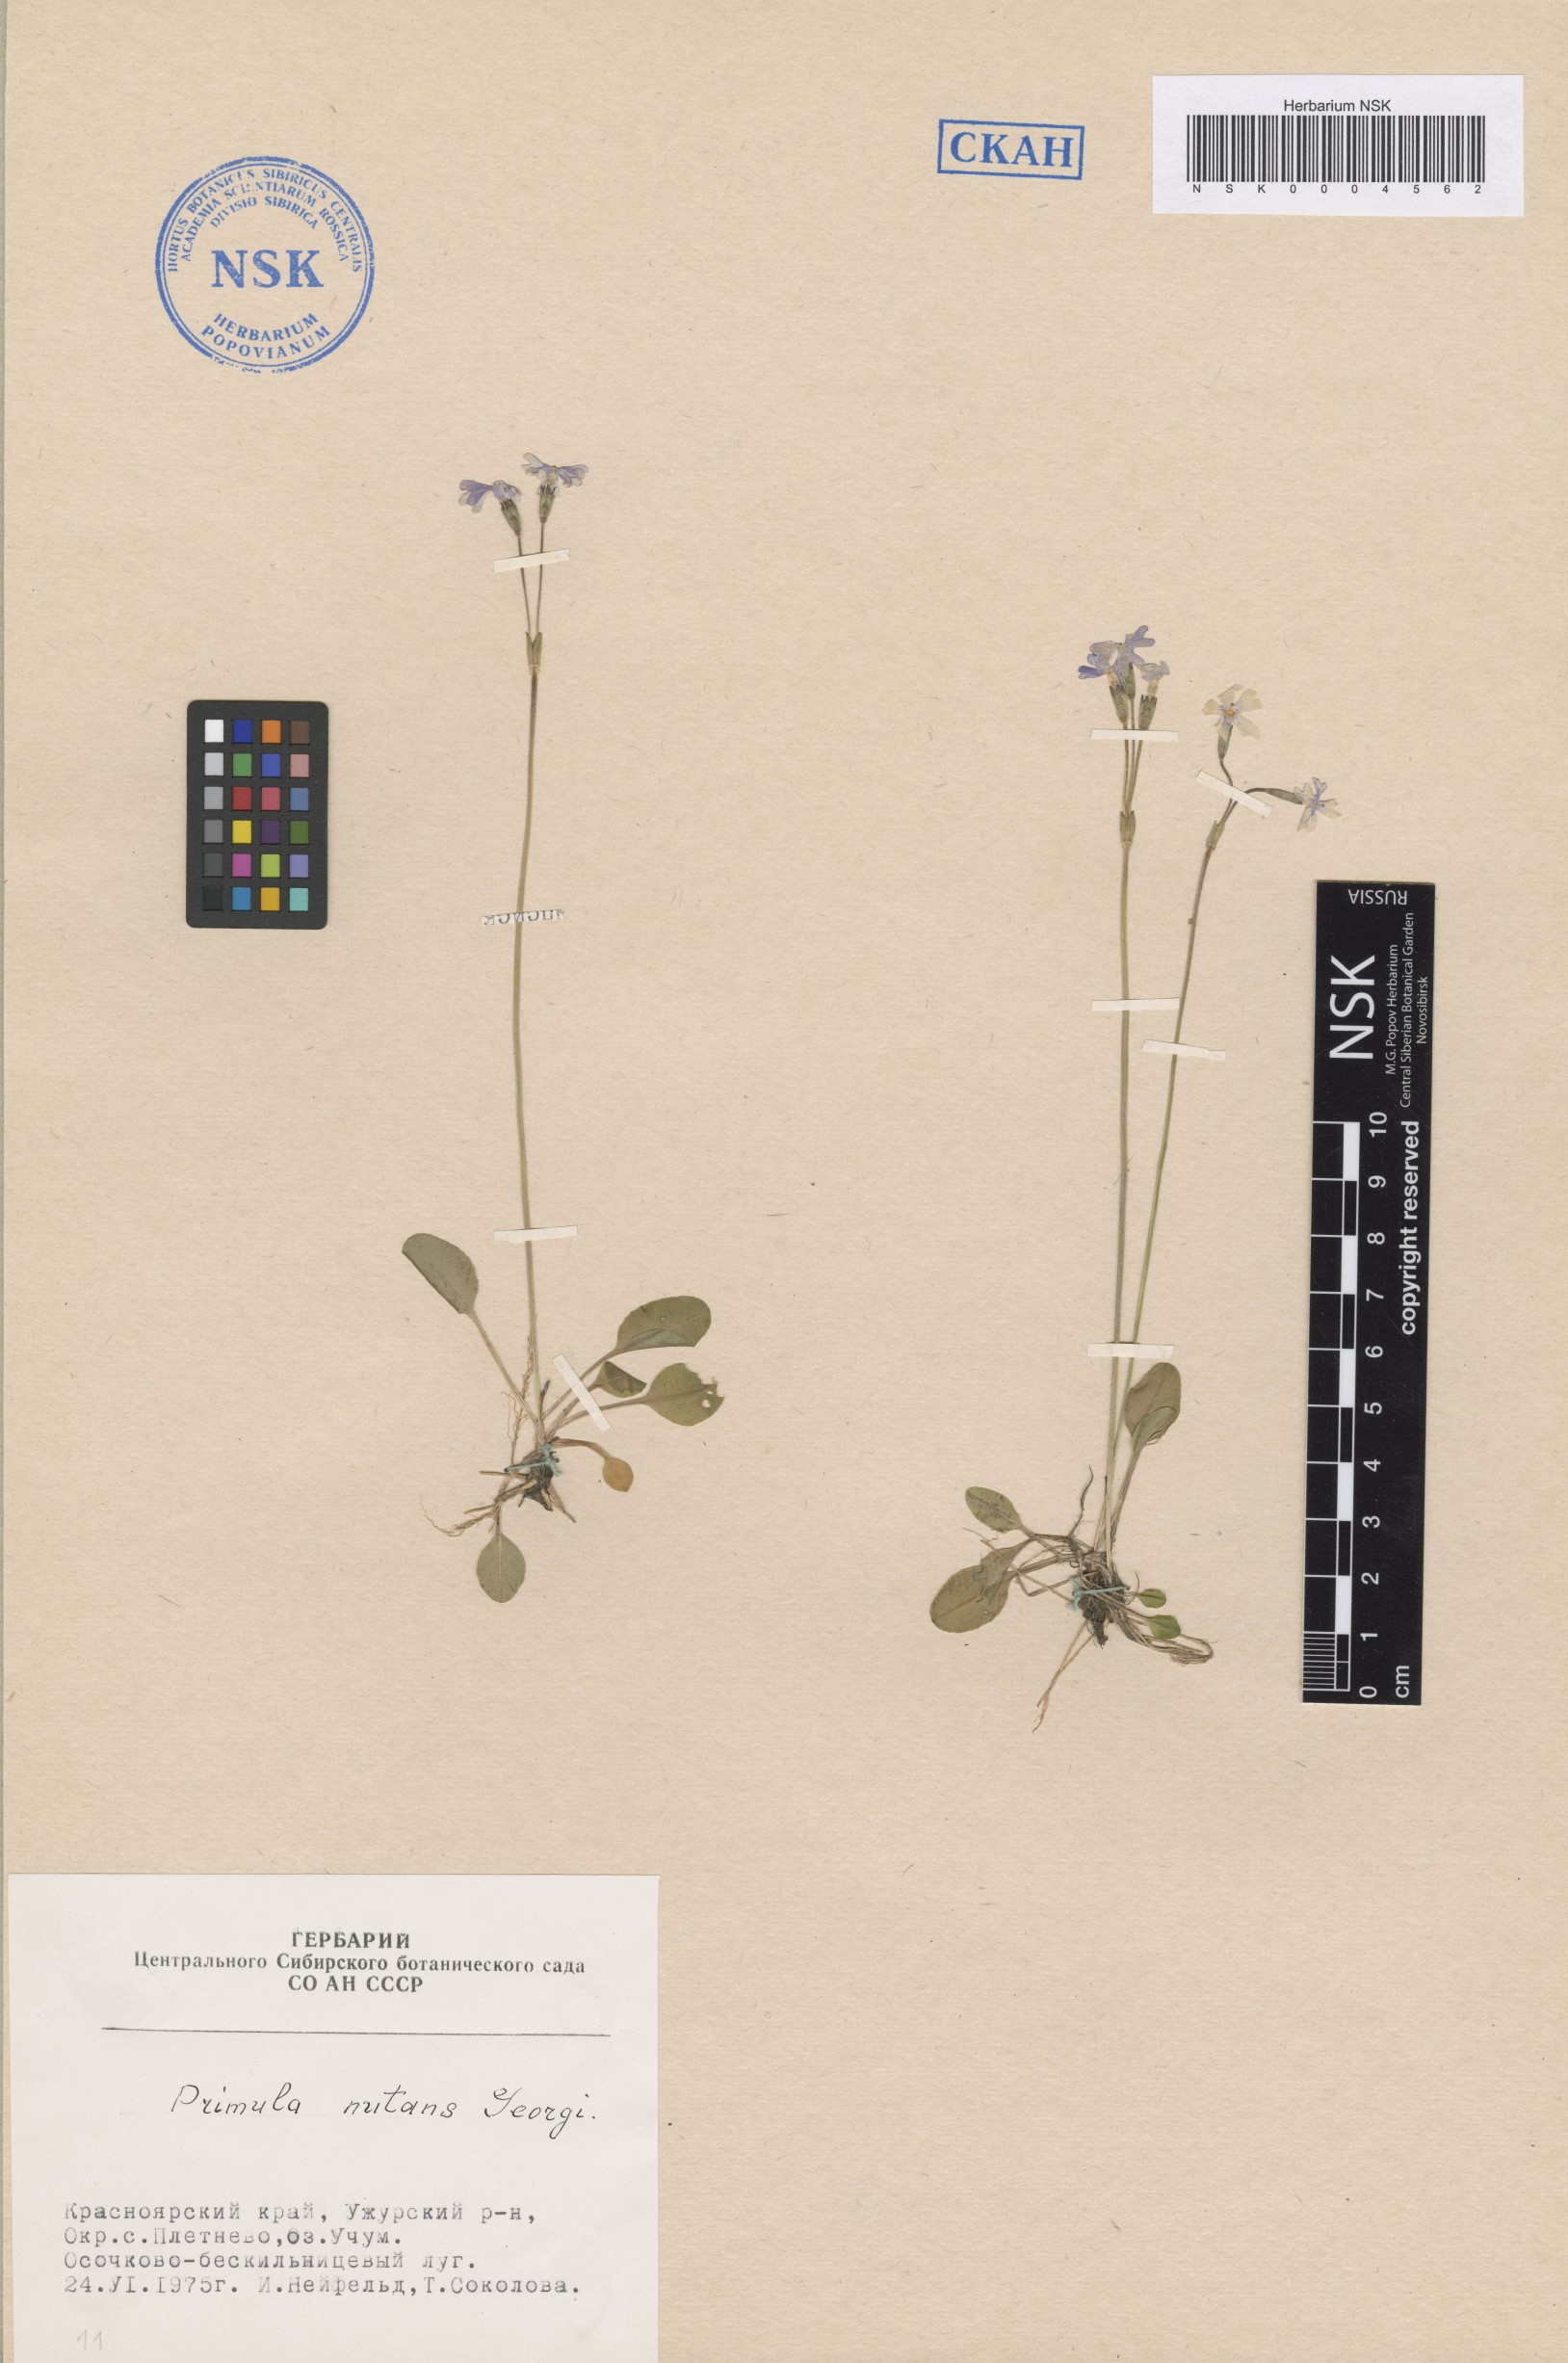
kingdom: Plantae
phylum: Tracheophyta
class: Magnoliopsida
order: Ericales
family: Primulaceae
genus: Primula
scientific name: Primula nutans
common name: Siberian primrose
